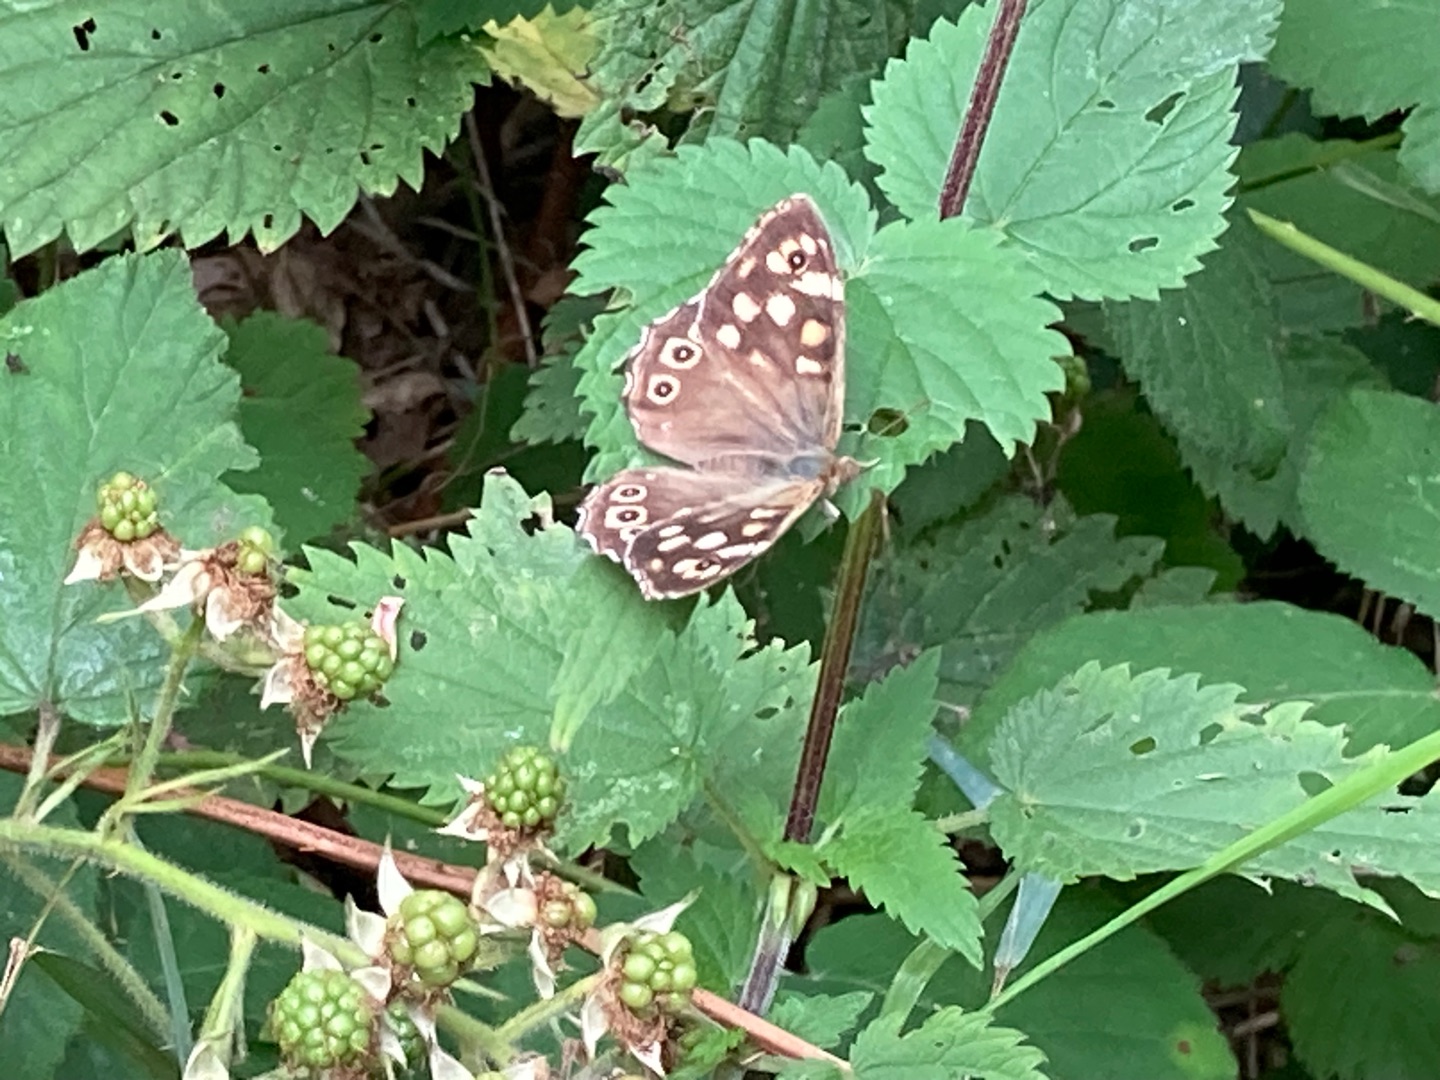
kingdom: Animalia
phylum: Arthropoda
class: Insecta
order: Lepidoptera
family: Nymphalidae
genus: Pararge
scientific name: Pararge aegeria
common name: Skovrandøje
